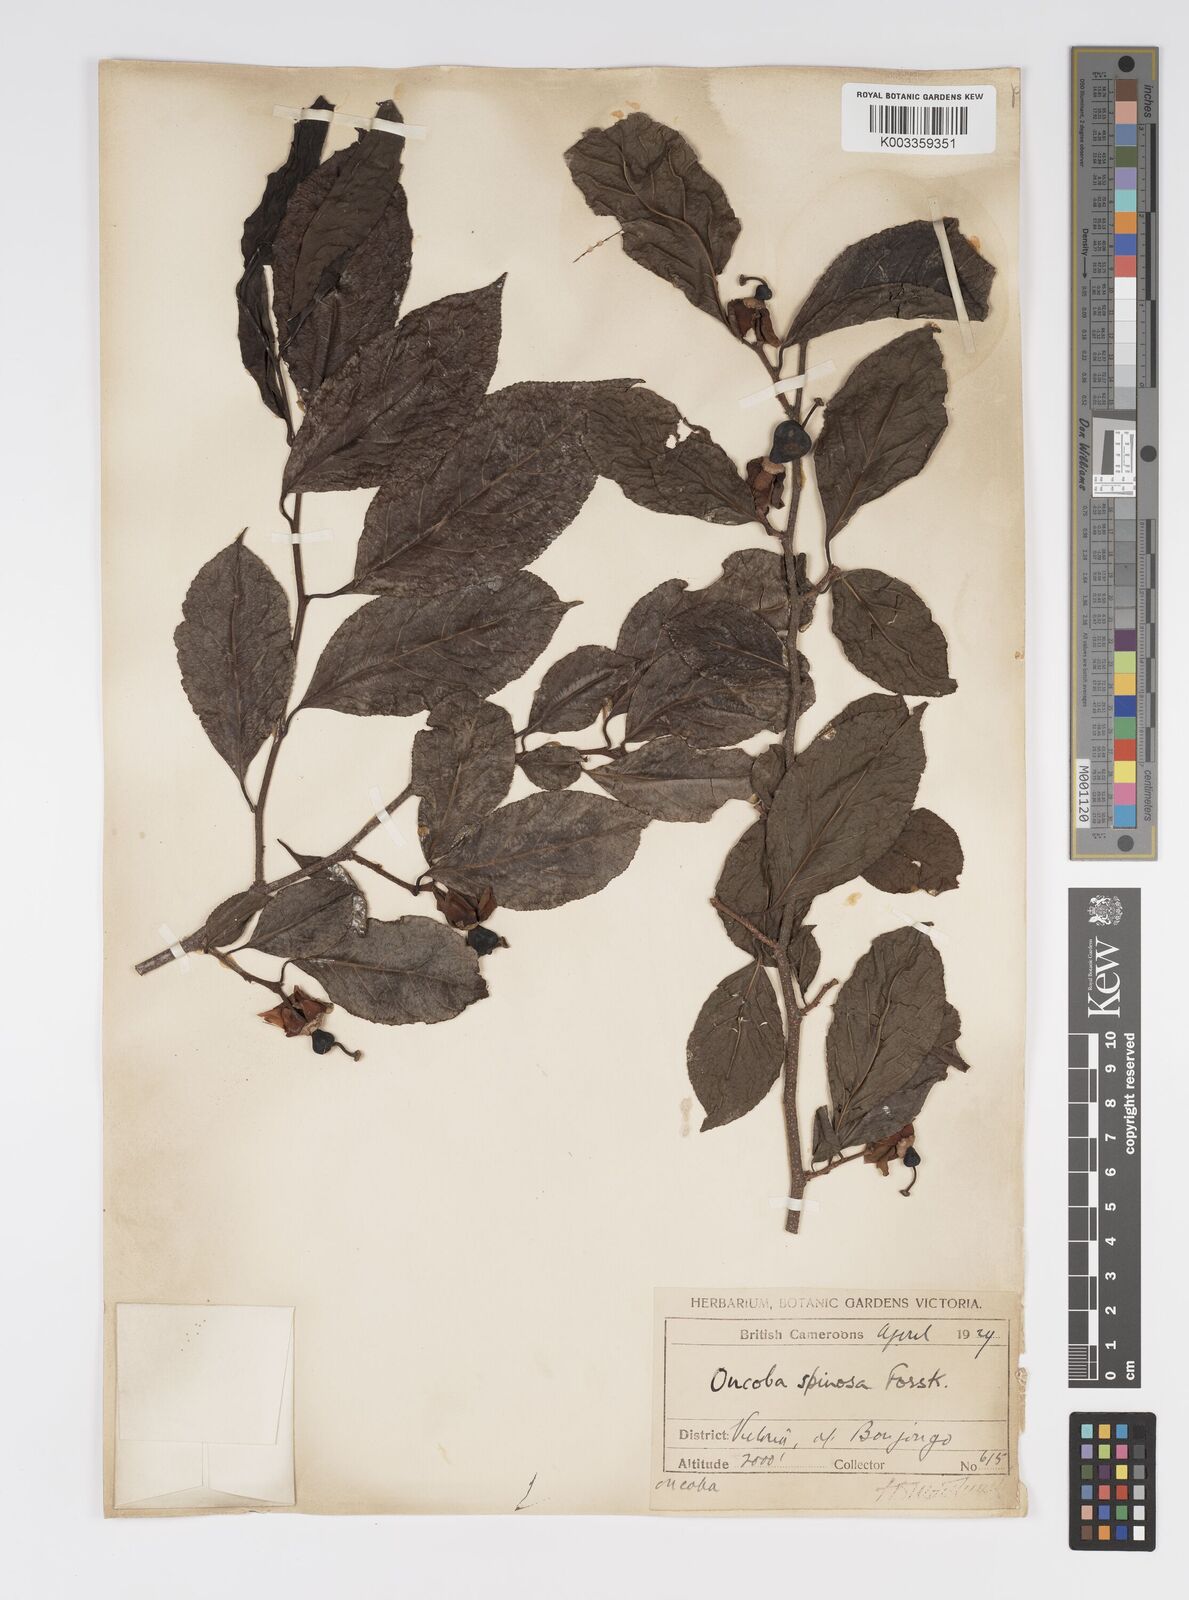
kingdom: Plantae
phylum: Tracheophyta
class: Magnoliopsida
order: Malpighiales
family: Salicaceae
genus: Oncoba
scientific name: Oncoba spinosa
